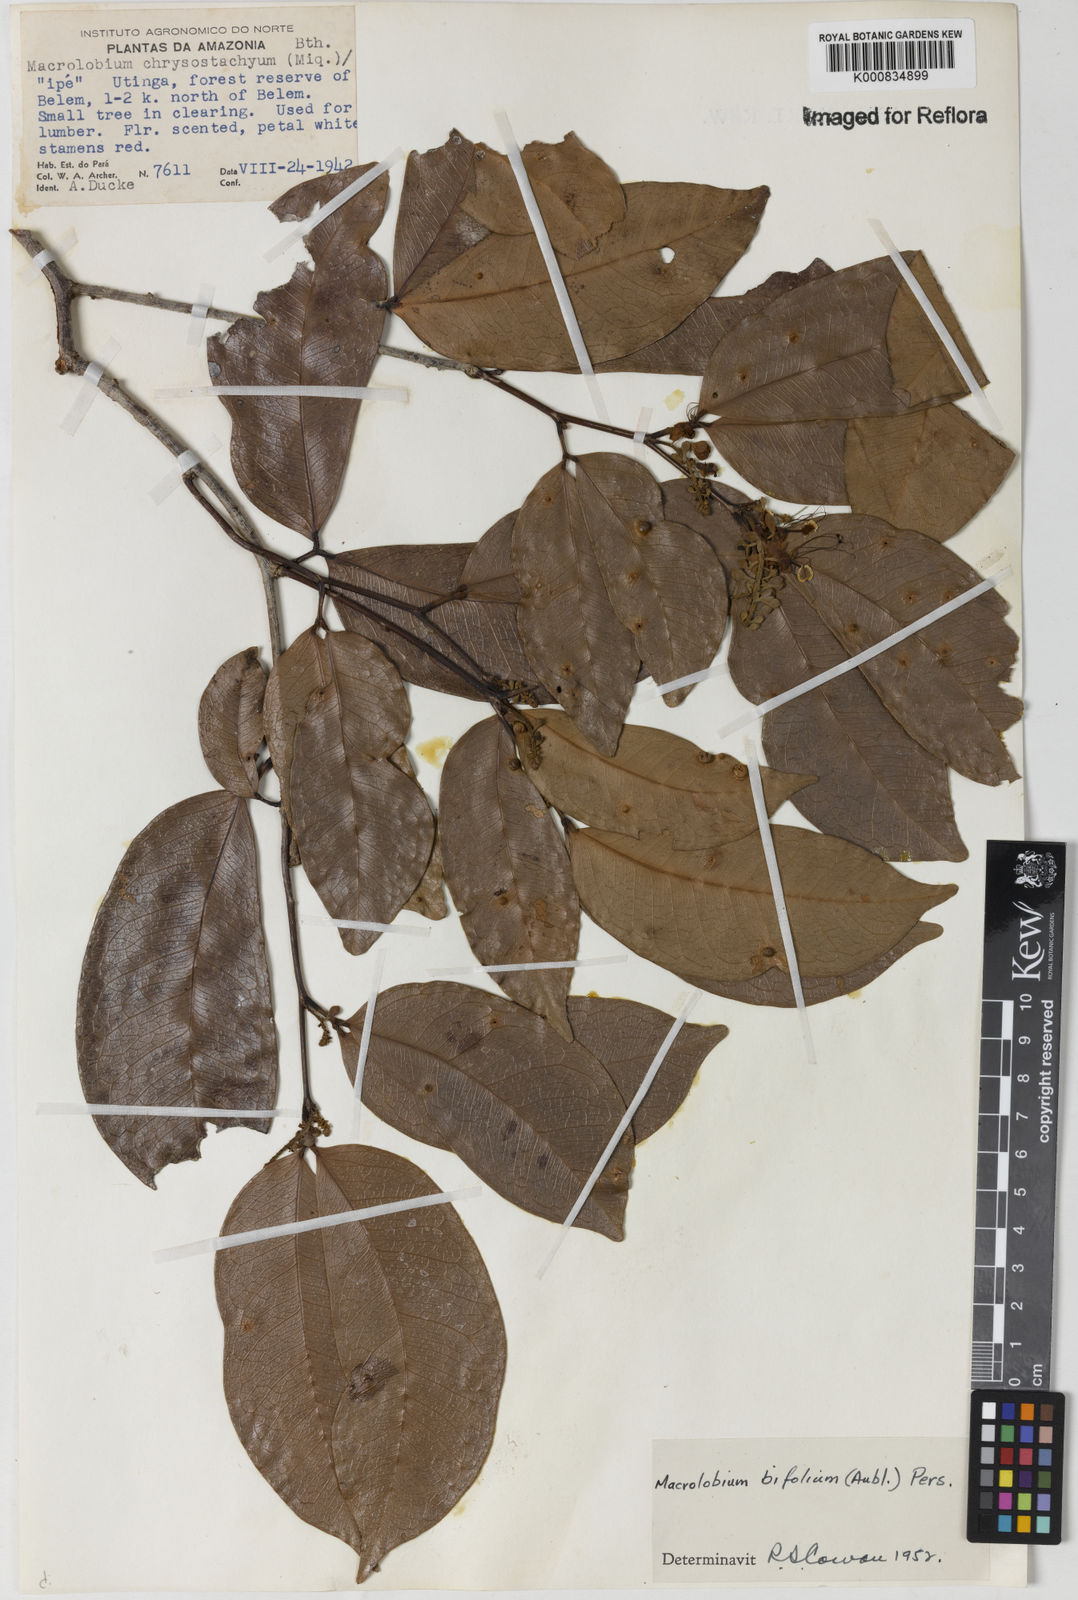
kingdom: Plantae
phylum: Tracheophyta
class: Magnoliopsida
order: Fabales
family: Fabaceae
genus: Macrolobium
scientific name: Macrolobium bifolium
